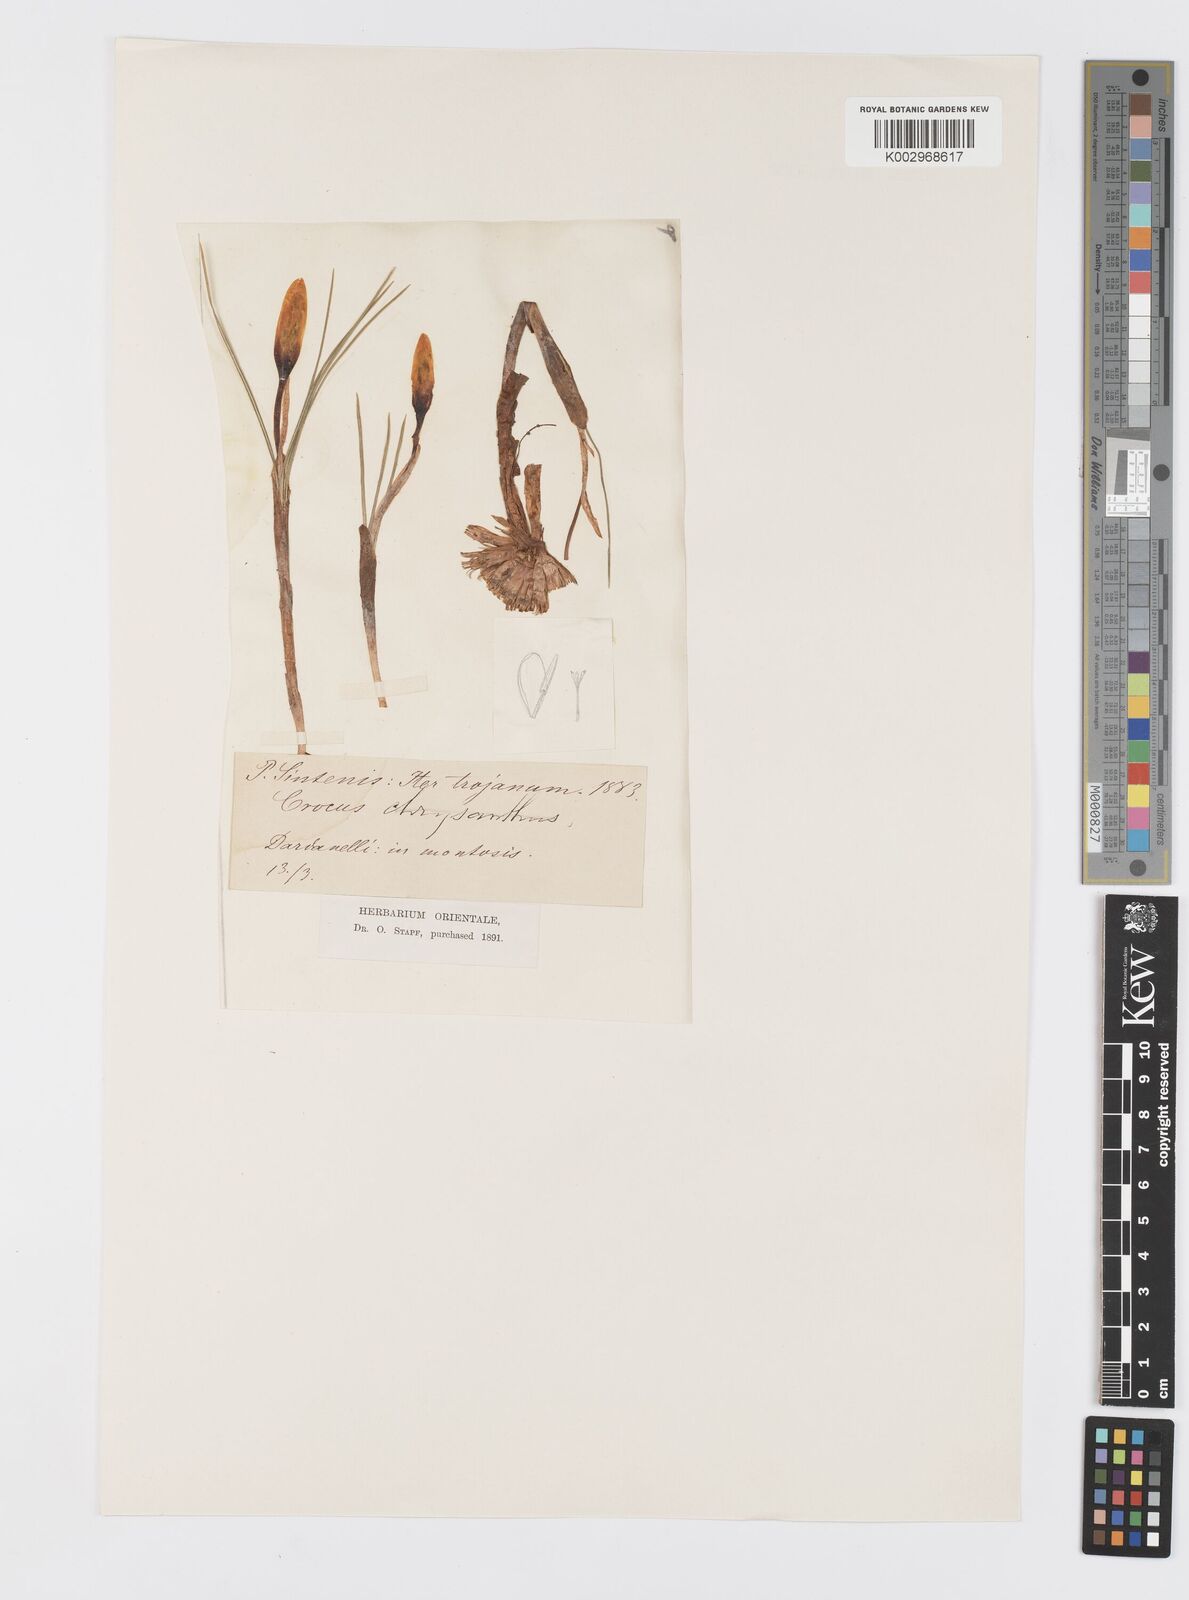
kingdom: Plantae
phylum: Tracheophyta
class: Liliopsida
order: Asparagales
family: Iridaceae
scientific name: Iridaceae
